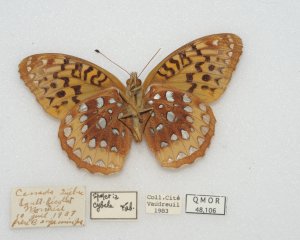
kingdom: Animalia
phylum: Arthropoda
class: Insecta
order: Lepidoptera
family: Nymphalidae
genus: Speyeria
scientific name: Speyeria cybele
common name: Great Spangled Fritillary
